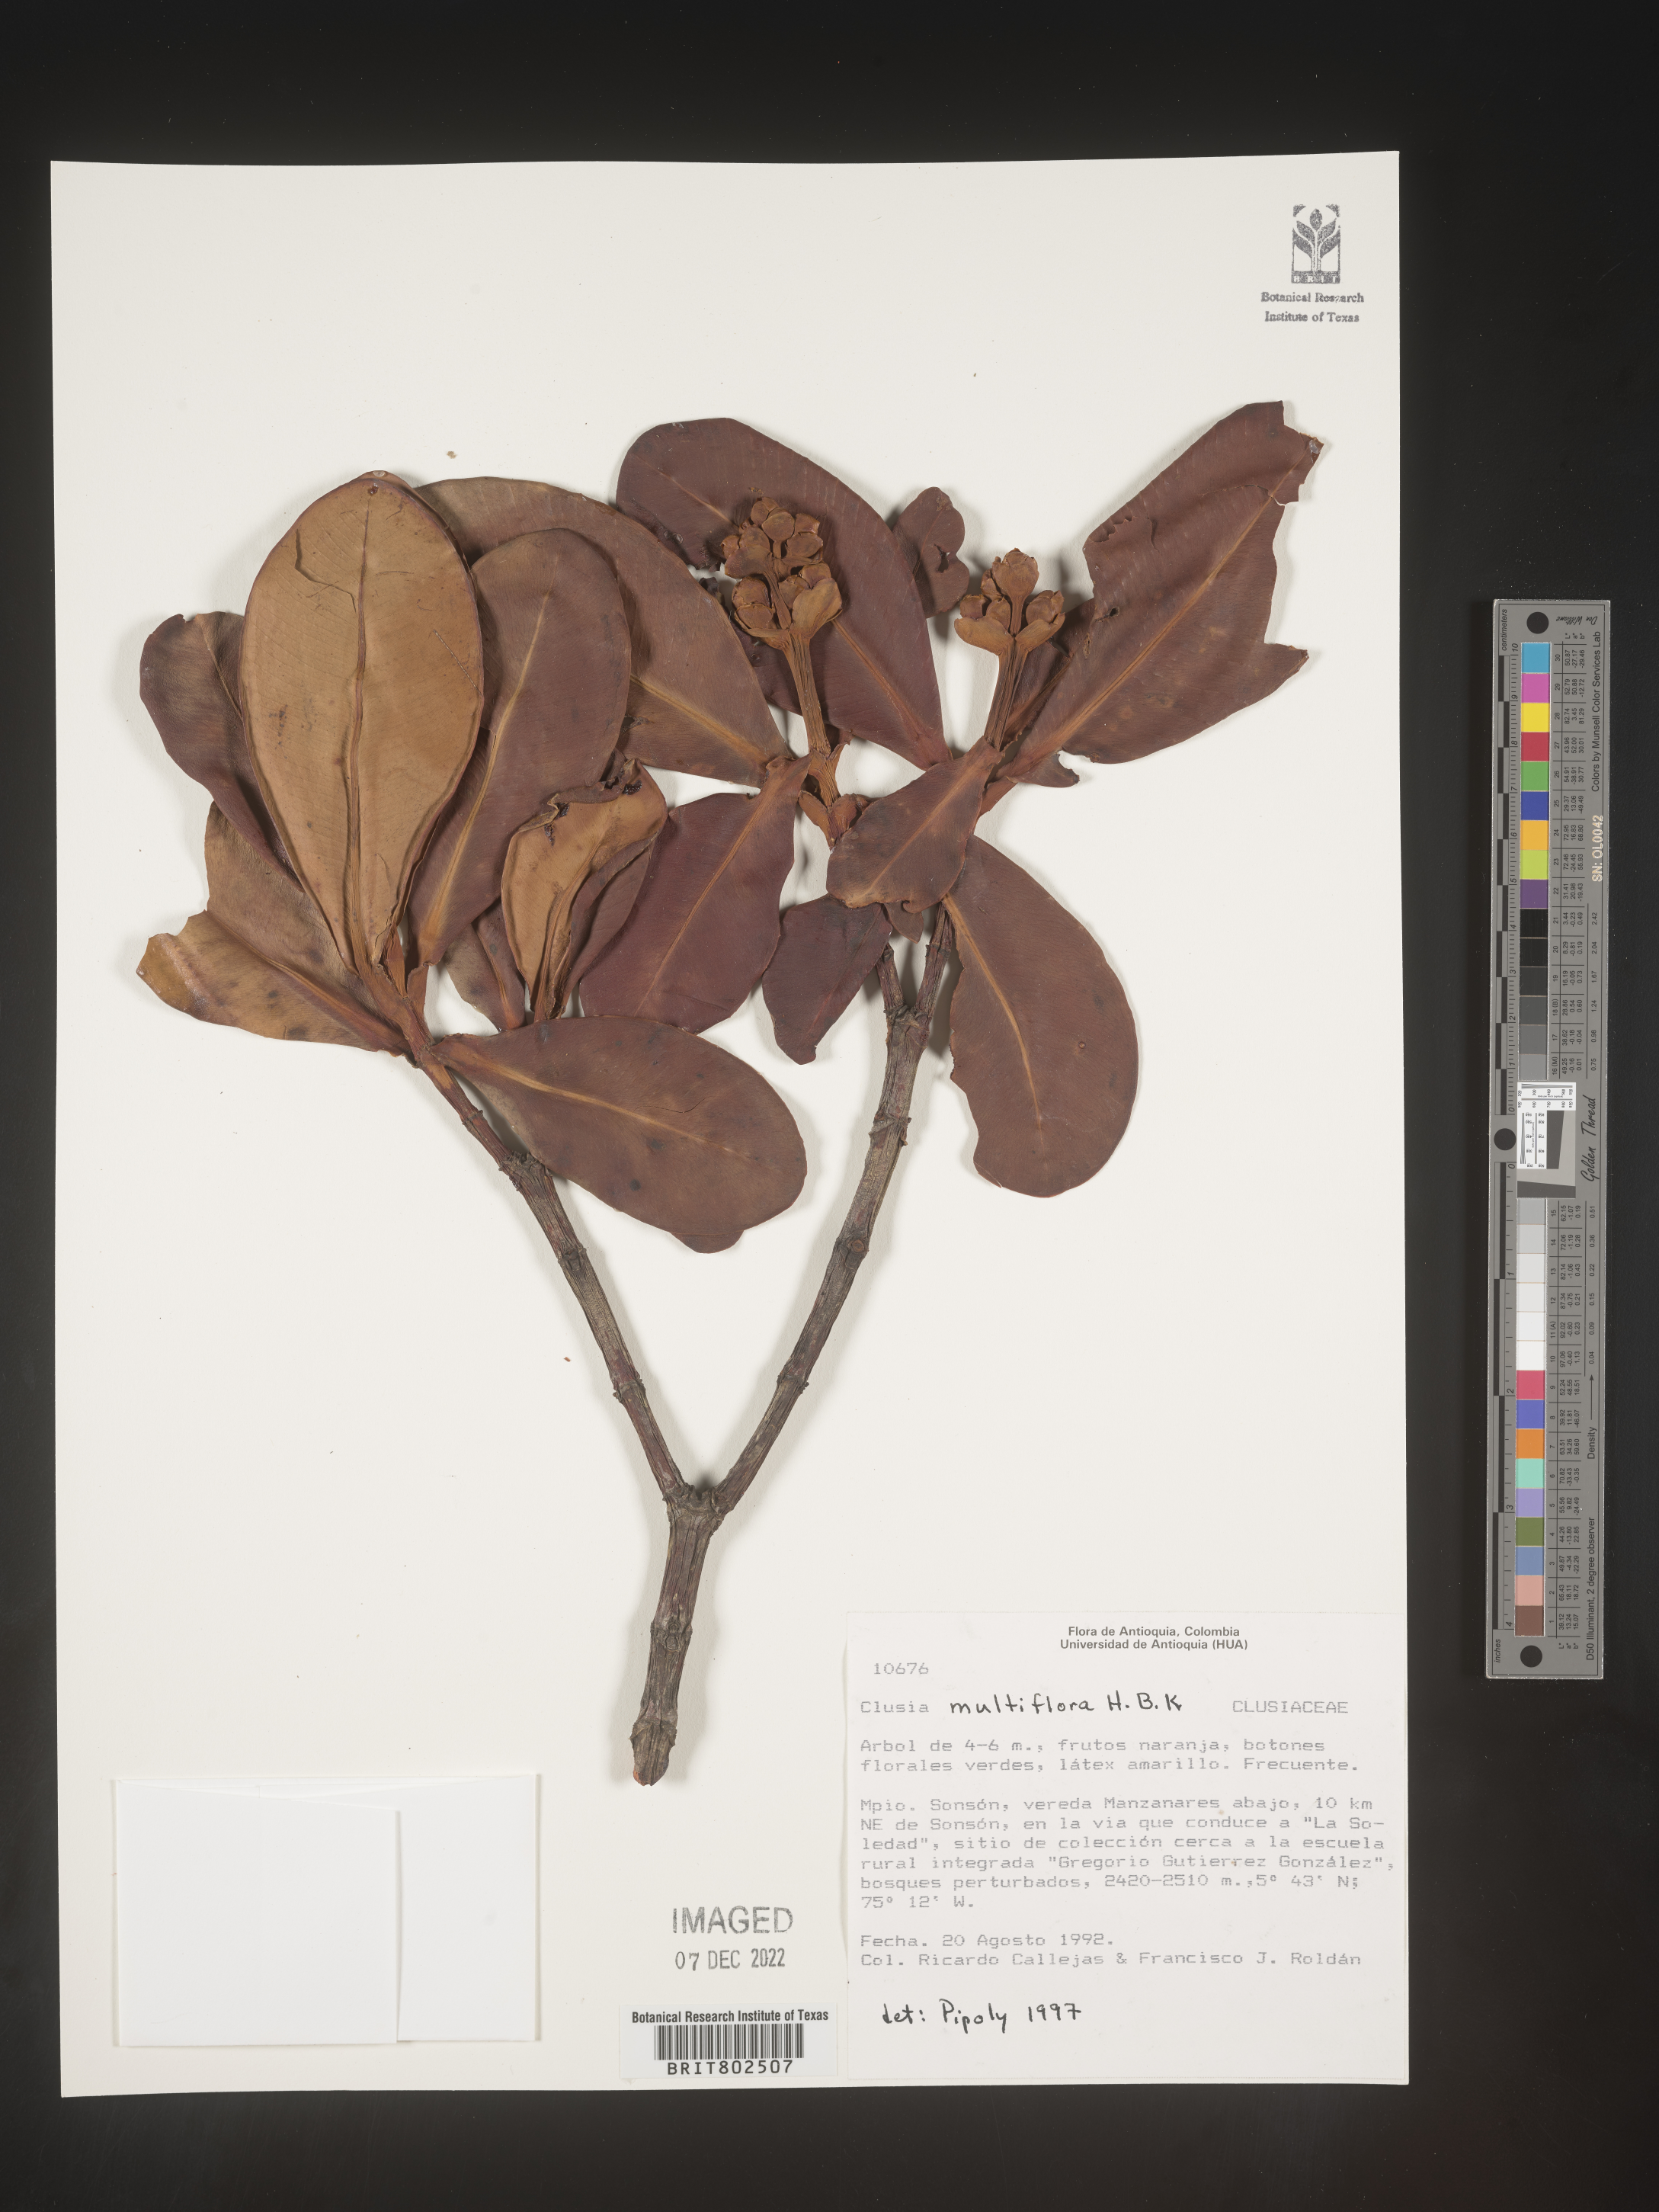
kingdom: Plantae
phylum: Tracheophyta
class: Magnoliopsida
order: Malpighiales
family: Clusiaceae
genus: Clusia
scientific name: Clusia multiflora
